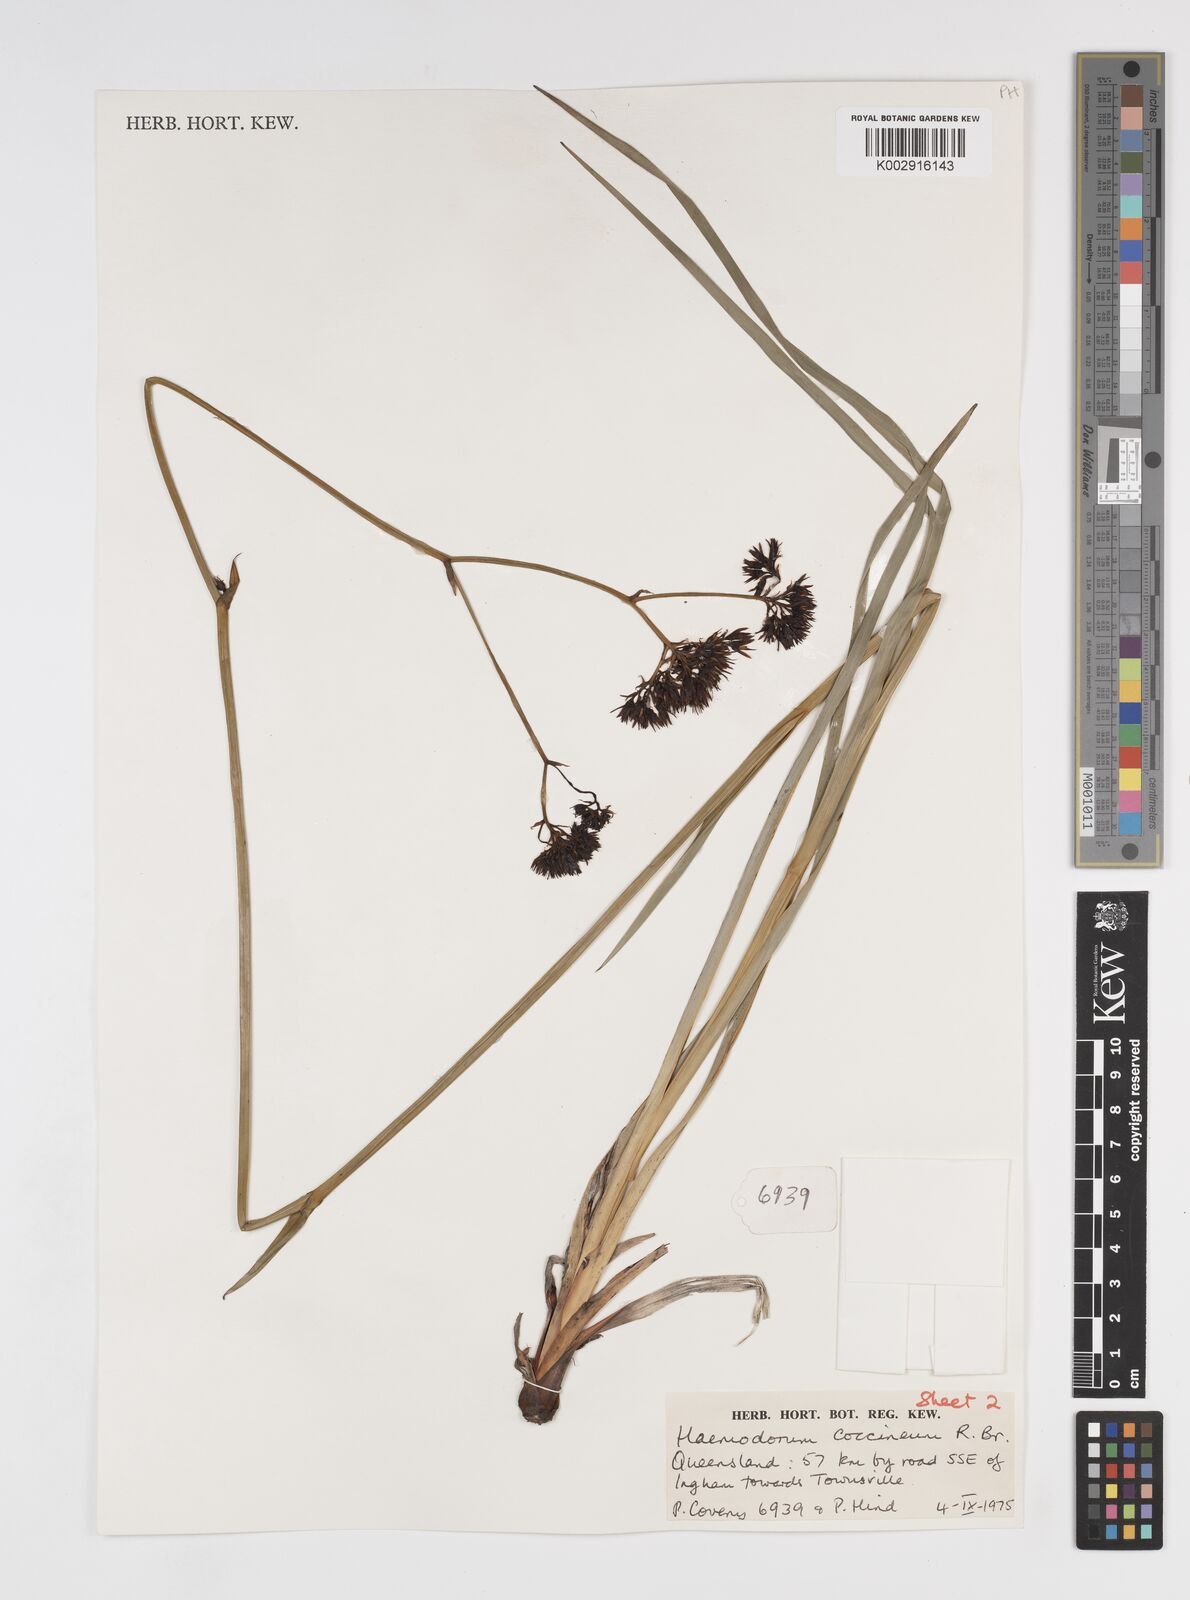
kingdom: Plantae
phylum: Tracheophyta
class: Liliopsida
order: Commelinales
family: Haemodoraceae
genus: Haemodorum
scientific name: Haemodorum coccineum
